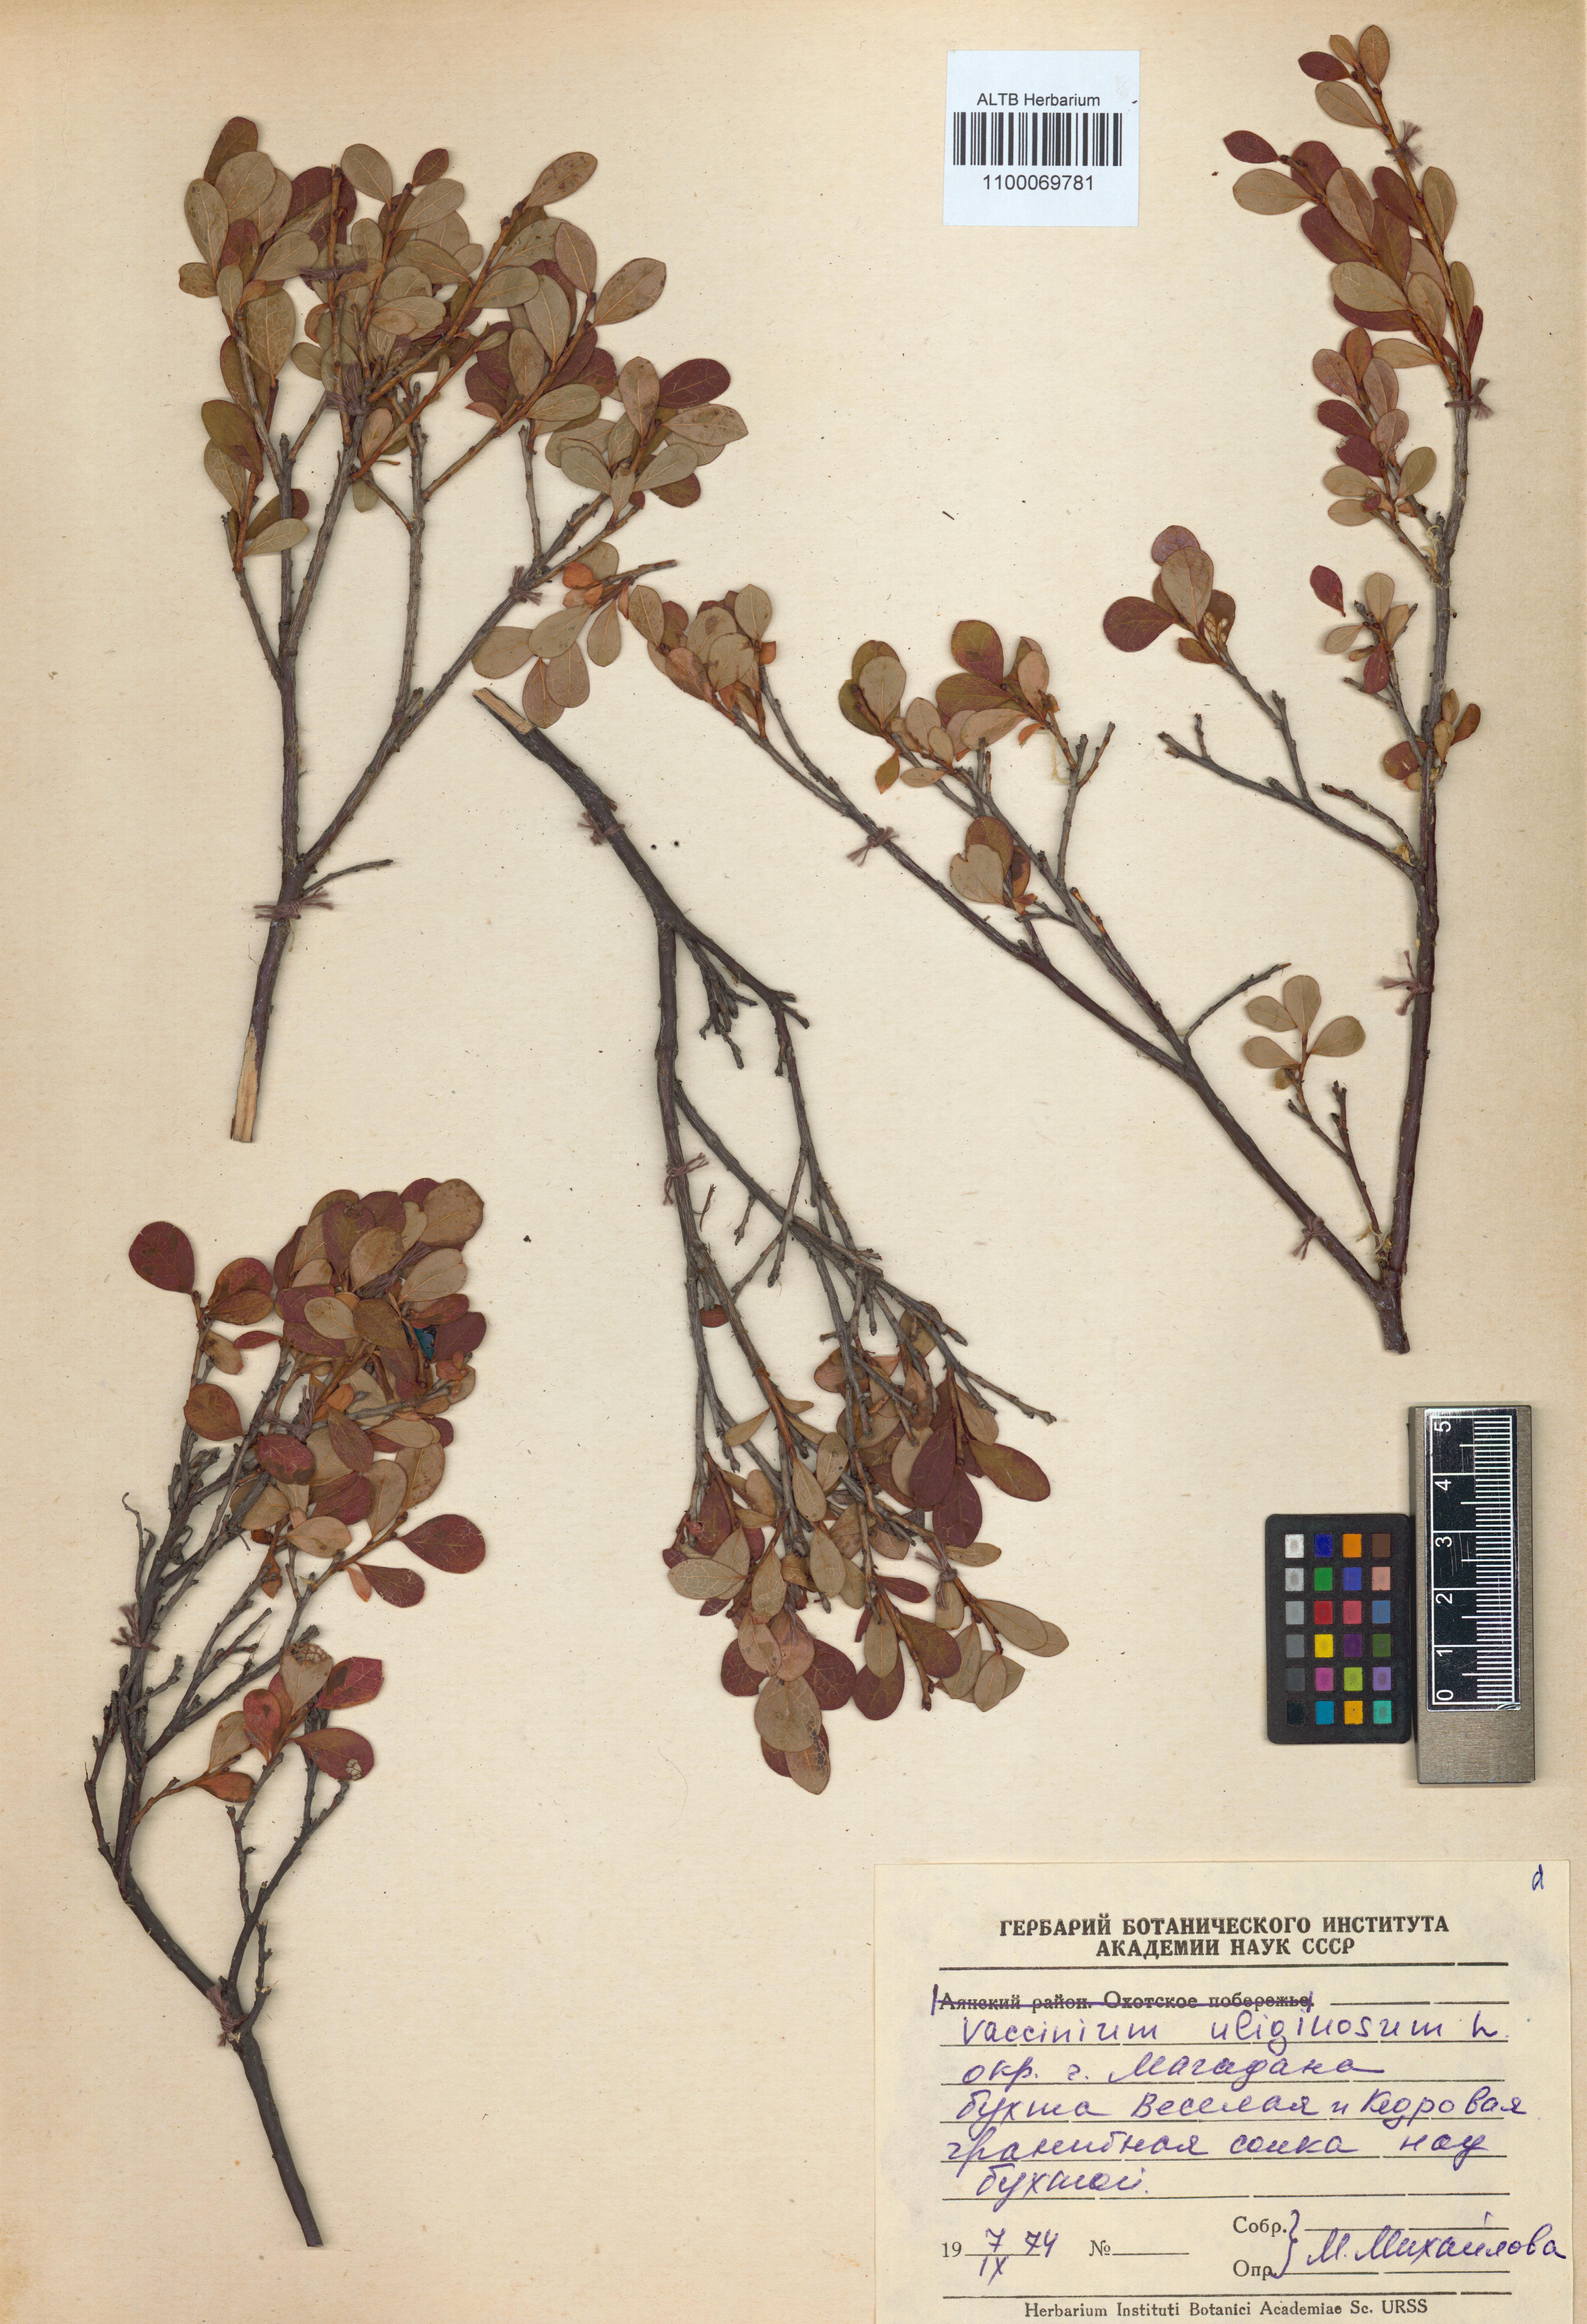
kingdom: Plantae
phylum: Tracheophyta
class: Magnoliopsida
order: Ericales
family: Ericaceae
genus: Vaccinium
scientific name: Vaccinium uliginosum
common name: Bog bilberry
